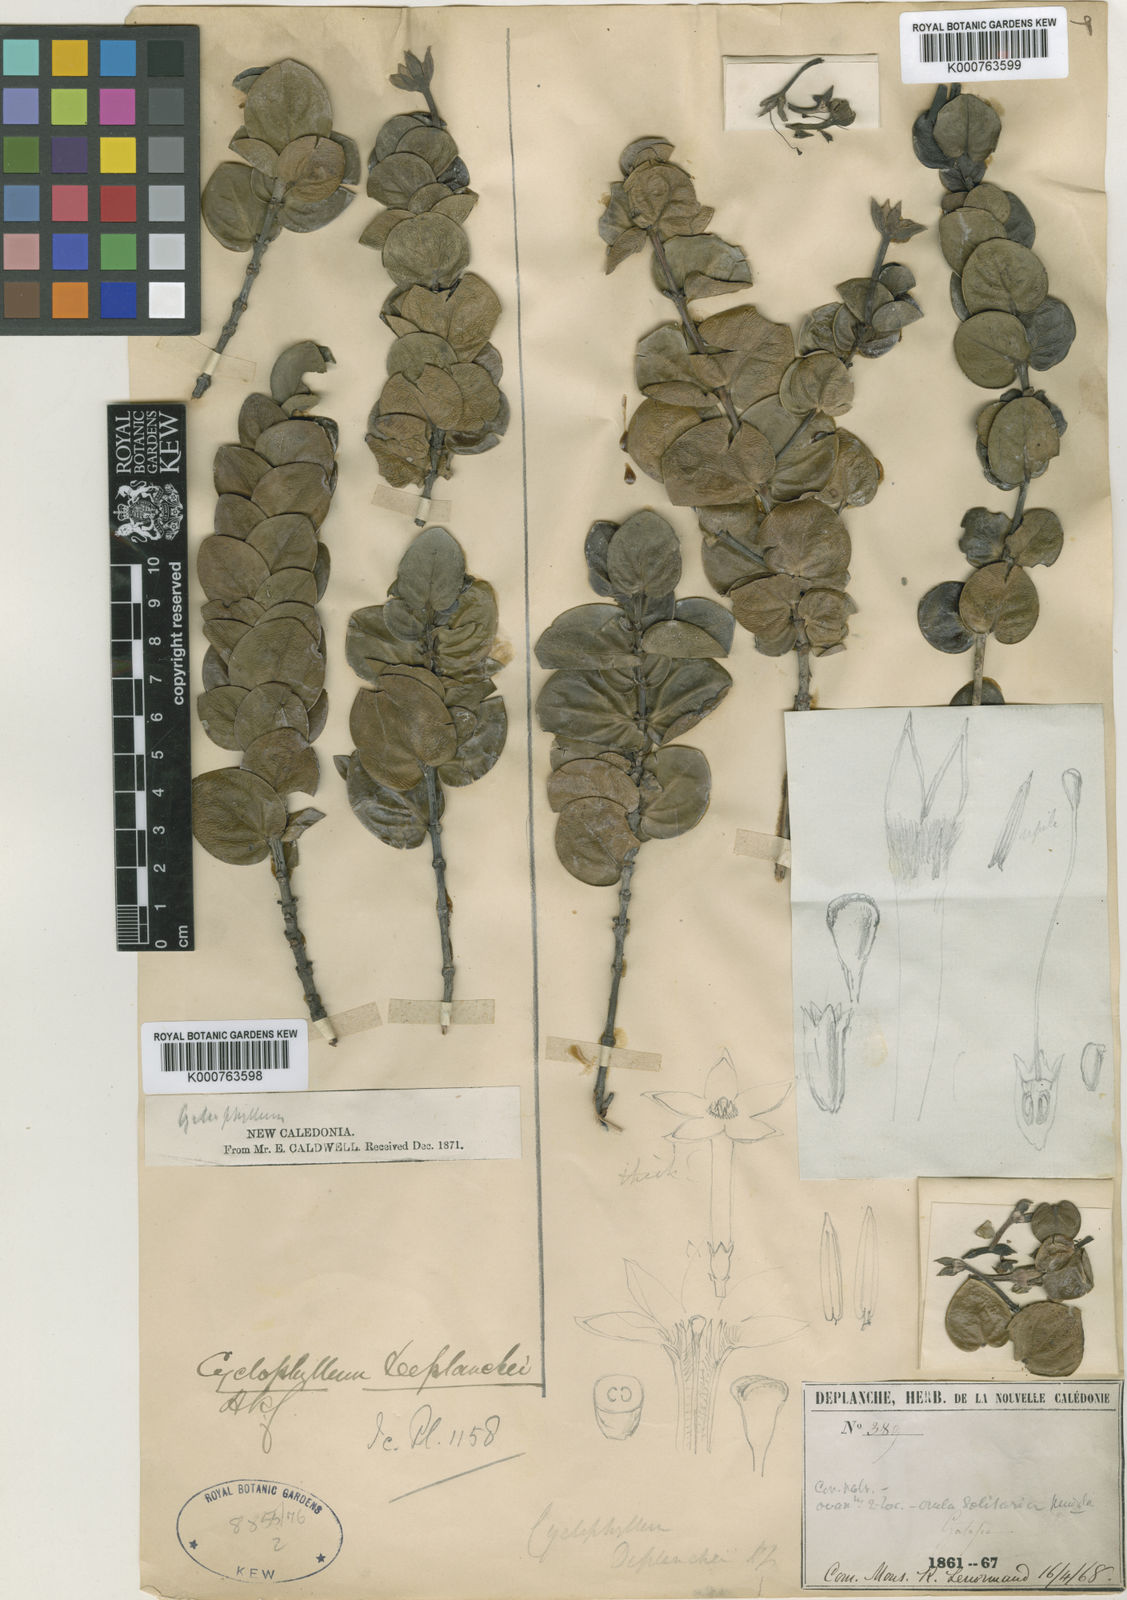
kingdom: Plantae
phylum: Tracheophyta
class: Magnoliopsida
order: Gentianales
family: Rubiaceae
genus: Cyclophyllum
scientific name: Cyclophyllum baladense
